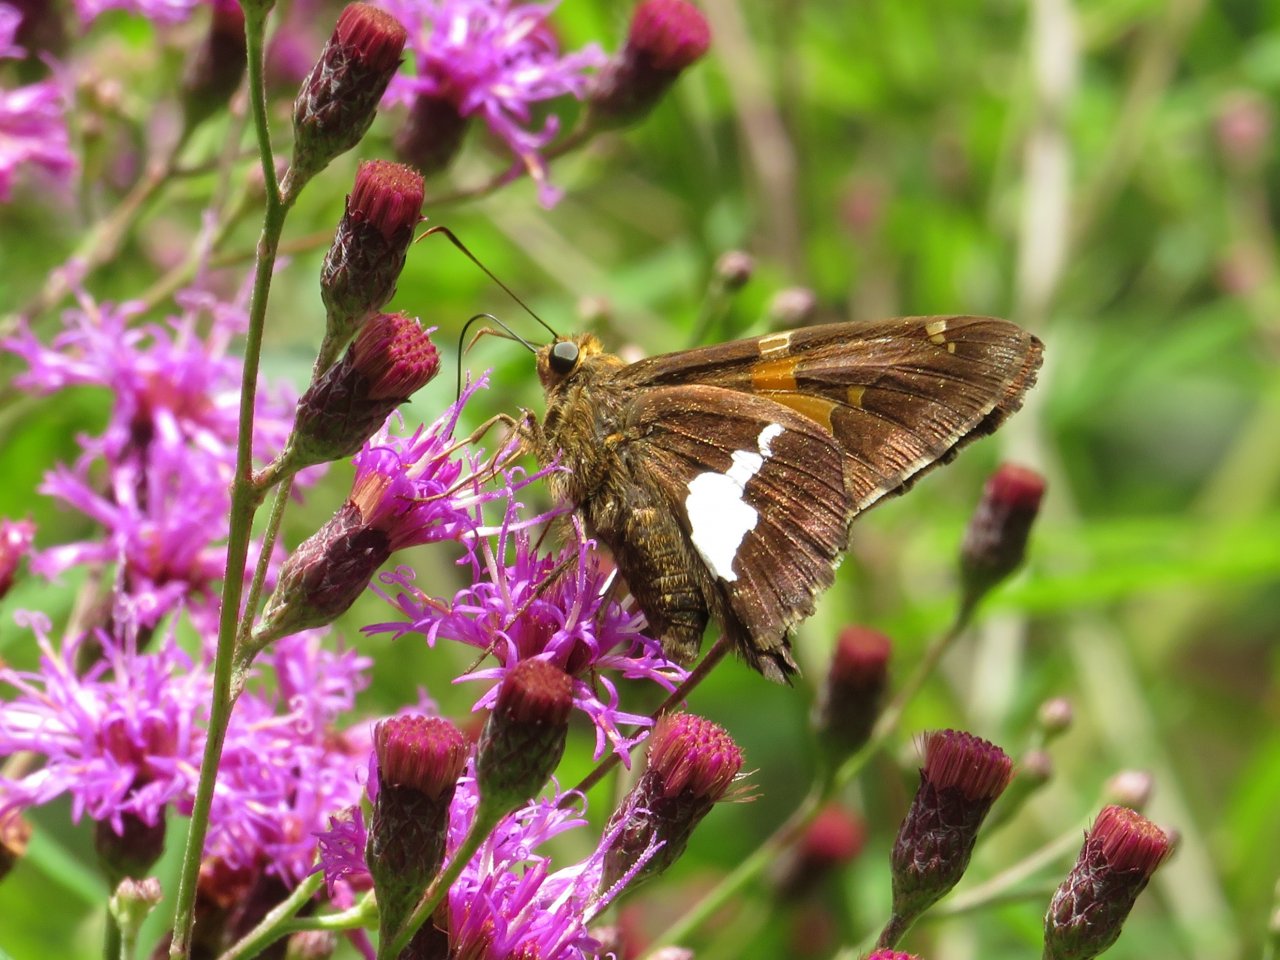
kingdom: Animalia
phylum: Arthropoda
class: Insecta
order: Lepidoptera
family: Hesperiidae
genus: Epargyreus
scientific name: Epargyreus clarus
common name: Silver-spotted Skipper
